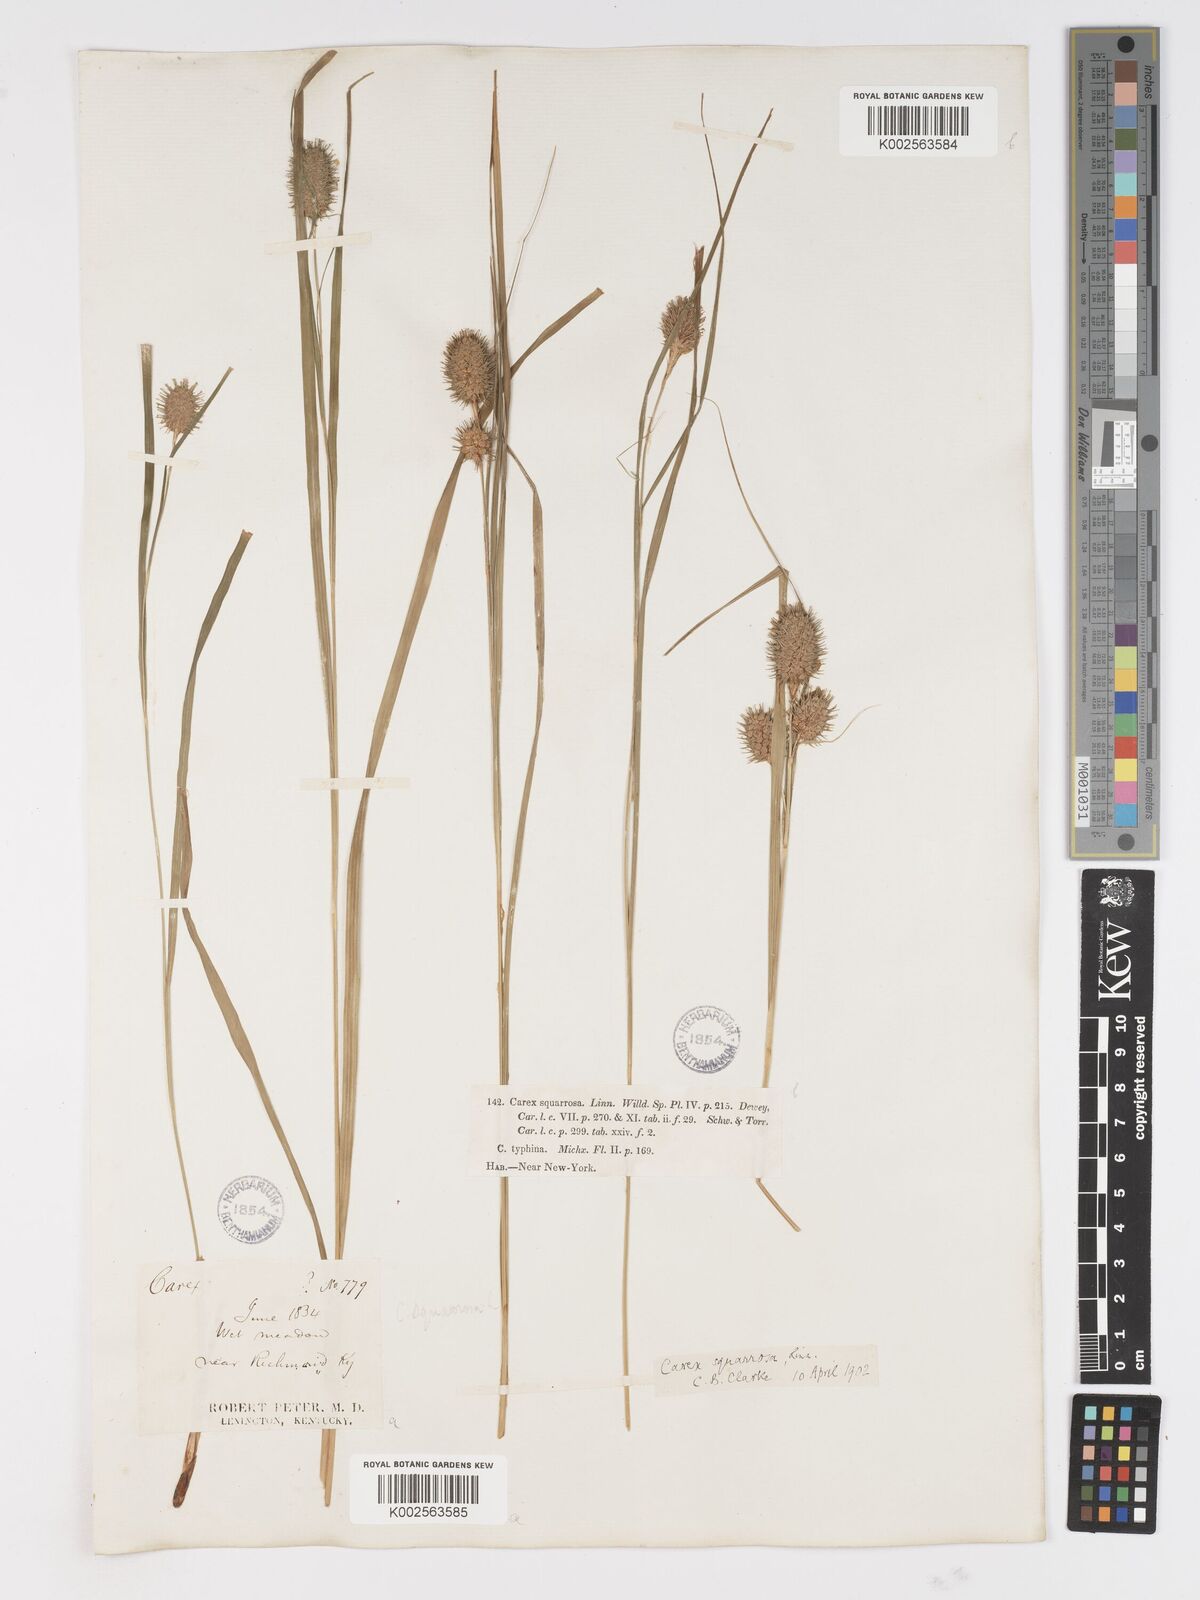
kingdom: Plantae
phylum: Tracheophyta
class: Liliopsida
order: Poales
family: Cyperaceae
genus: Carex
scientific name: Carex typhina
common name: Cattail sedge
